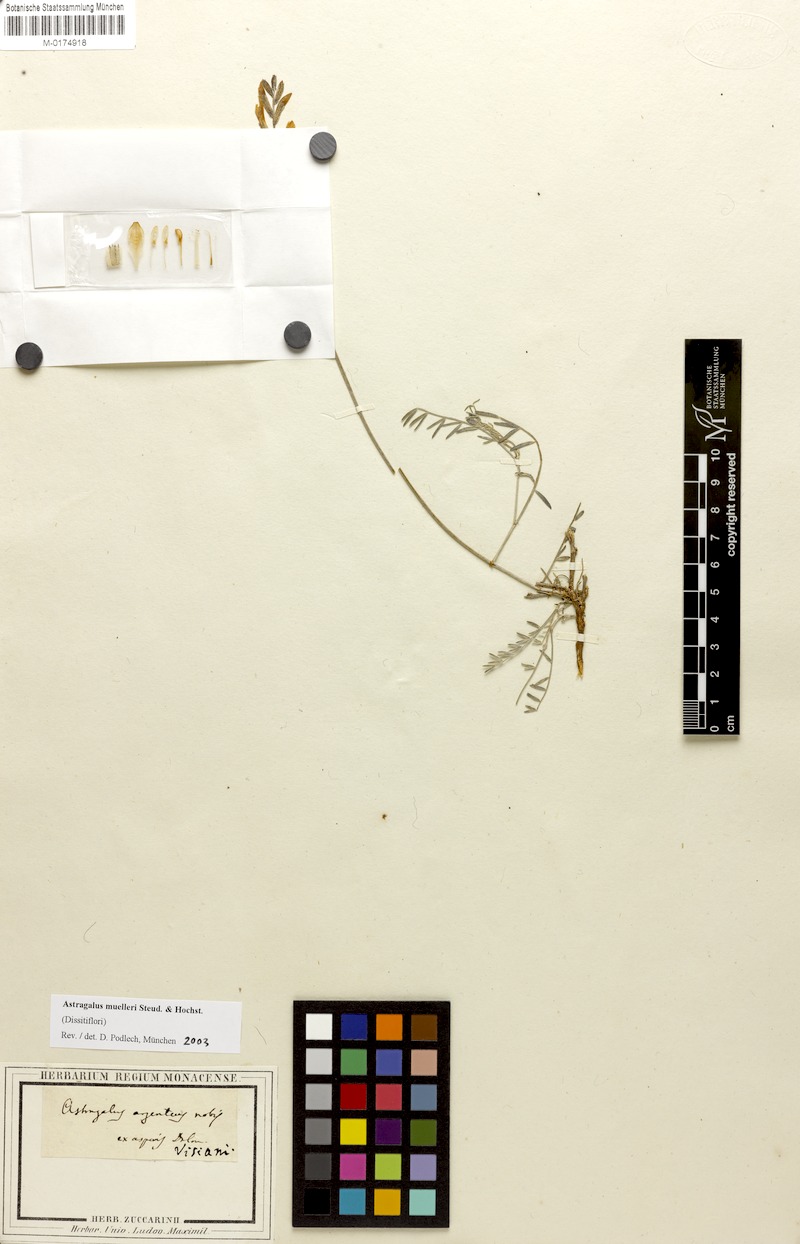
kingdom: Plantae
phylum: Tracheophyta
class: Magnoliopsida
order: Fabales
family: Fabaceae
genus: Astragalus
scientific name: Astragalus muelleri
